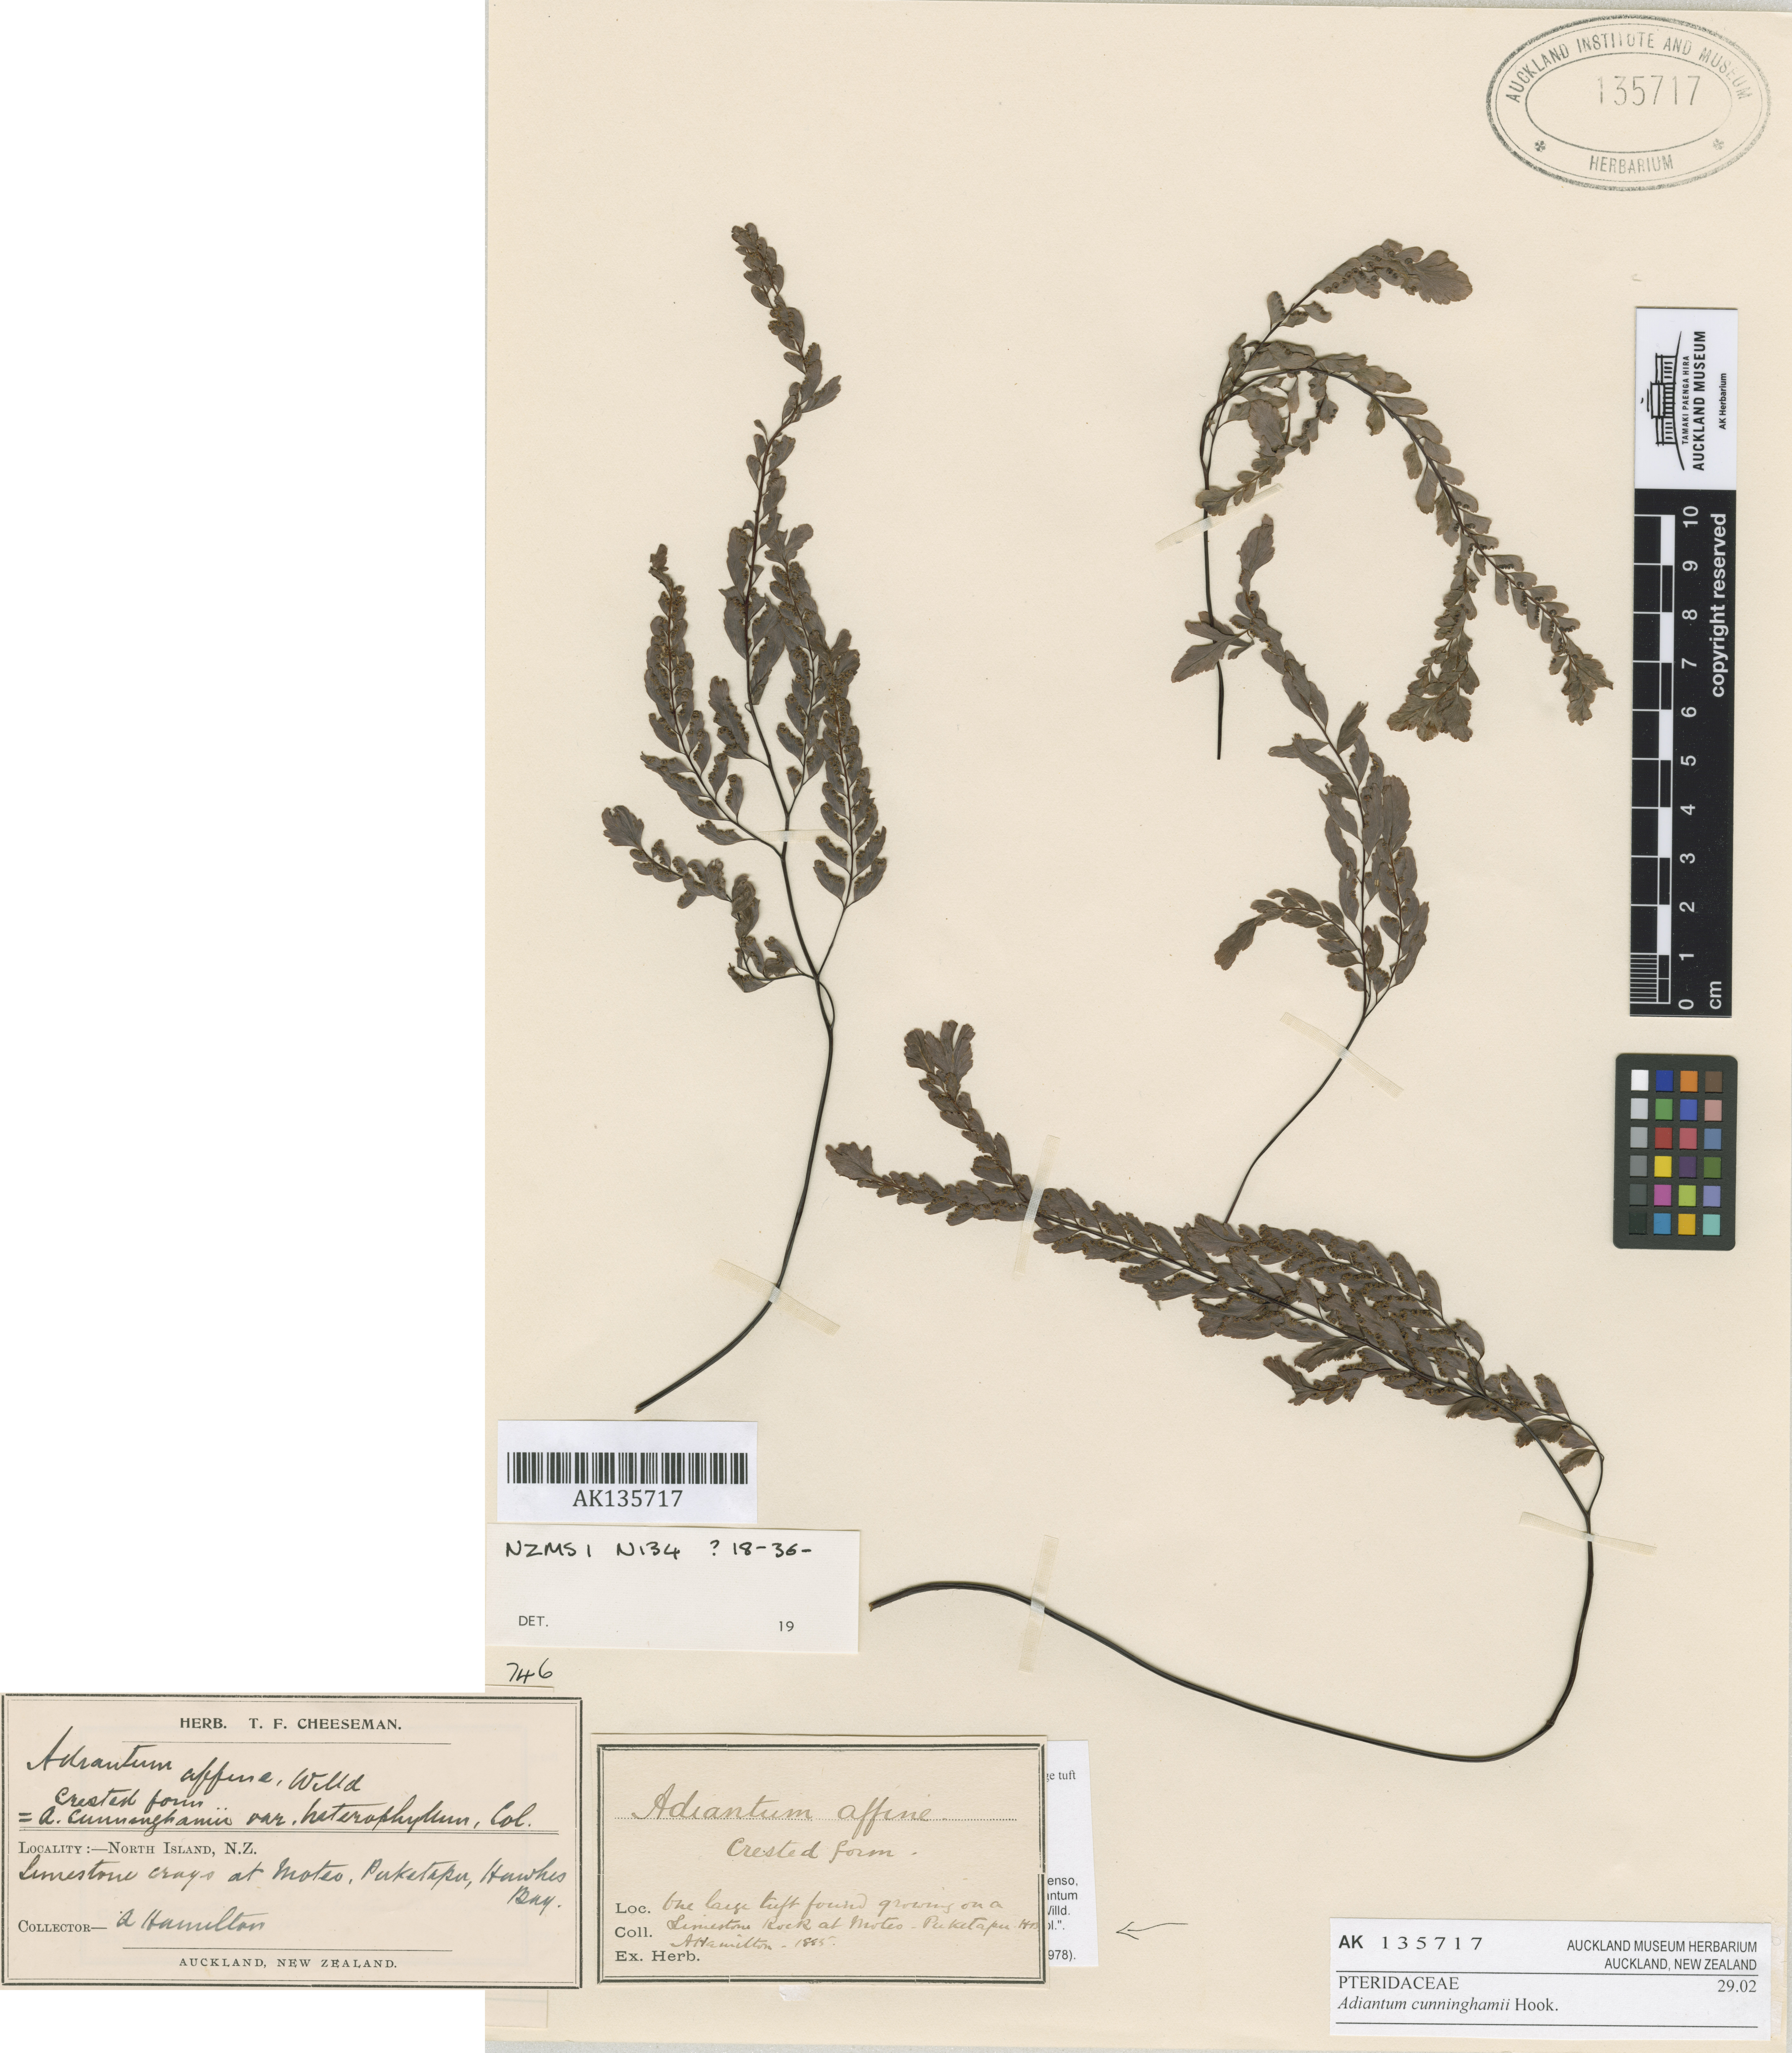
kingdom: Plantae
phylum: Tracheophyta
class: Polypodiopsida
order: Polypodiales
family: Pteridaceae
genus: Adiantum
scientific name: Adiantum cunninghamii
